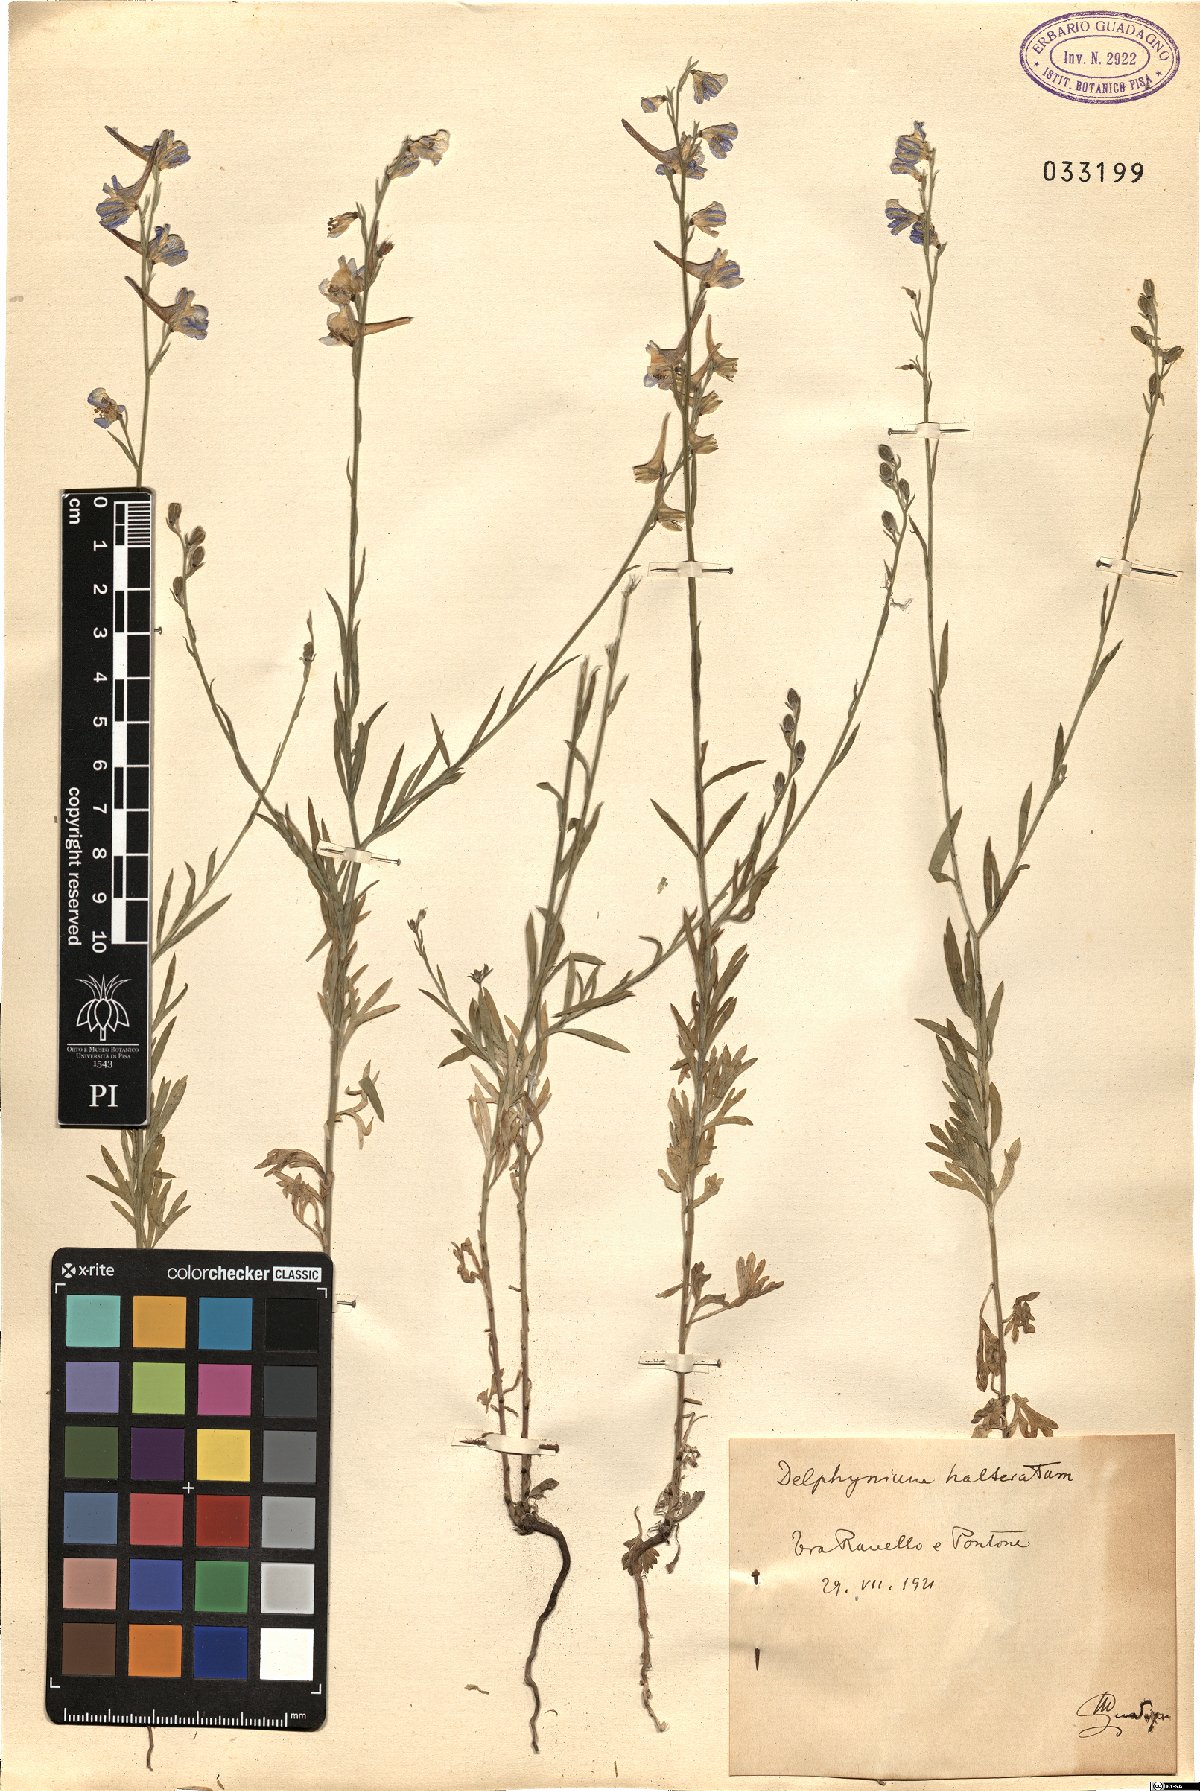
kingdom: Plantae
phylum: Tracheophyta
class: Magnoliopsida
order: Ranunculales
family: Ranunculaceae
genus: Delphinium
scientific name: Delphinium halteratum
